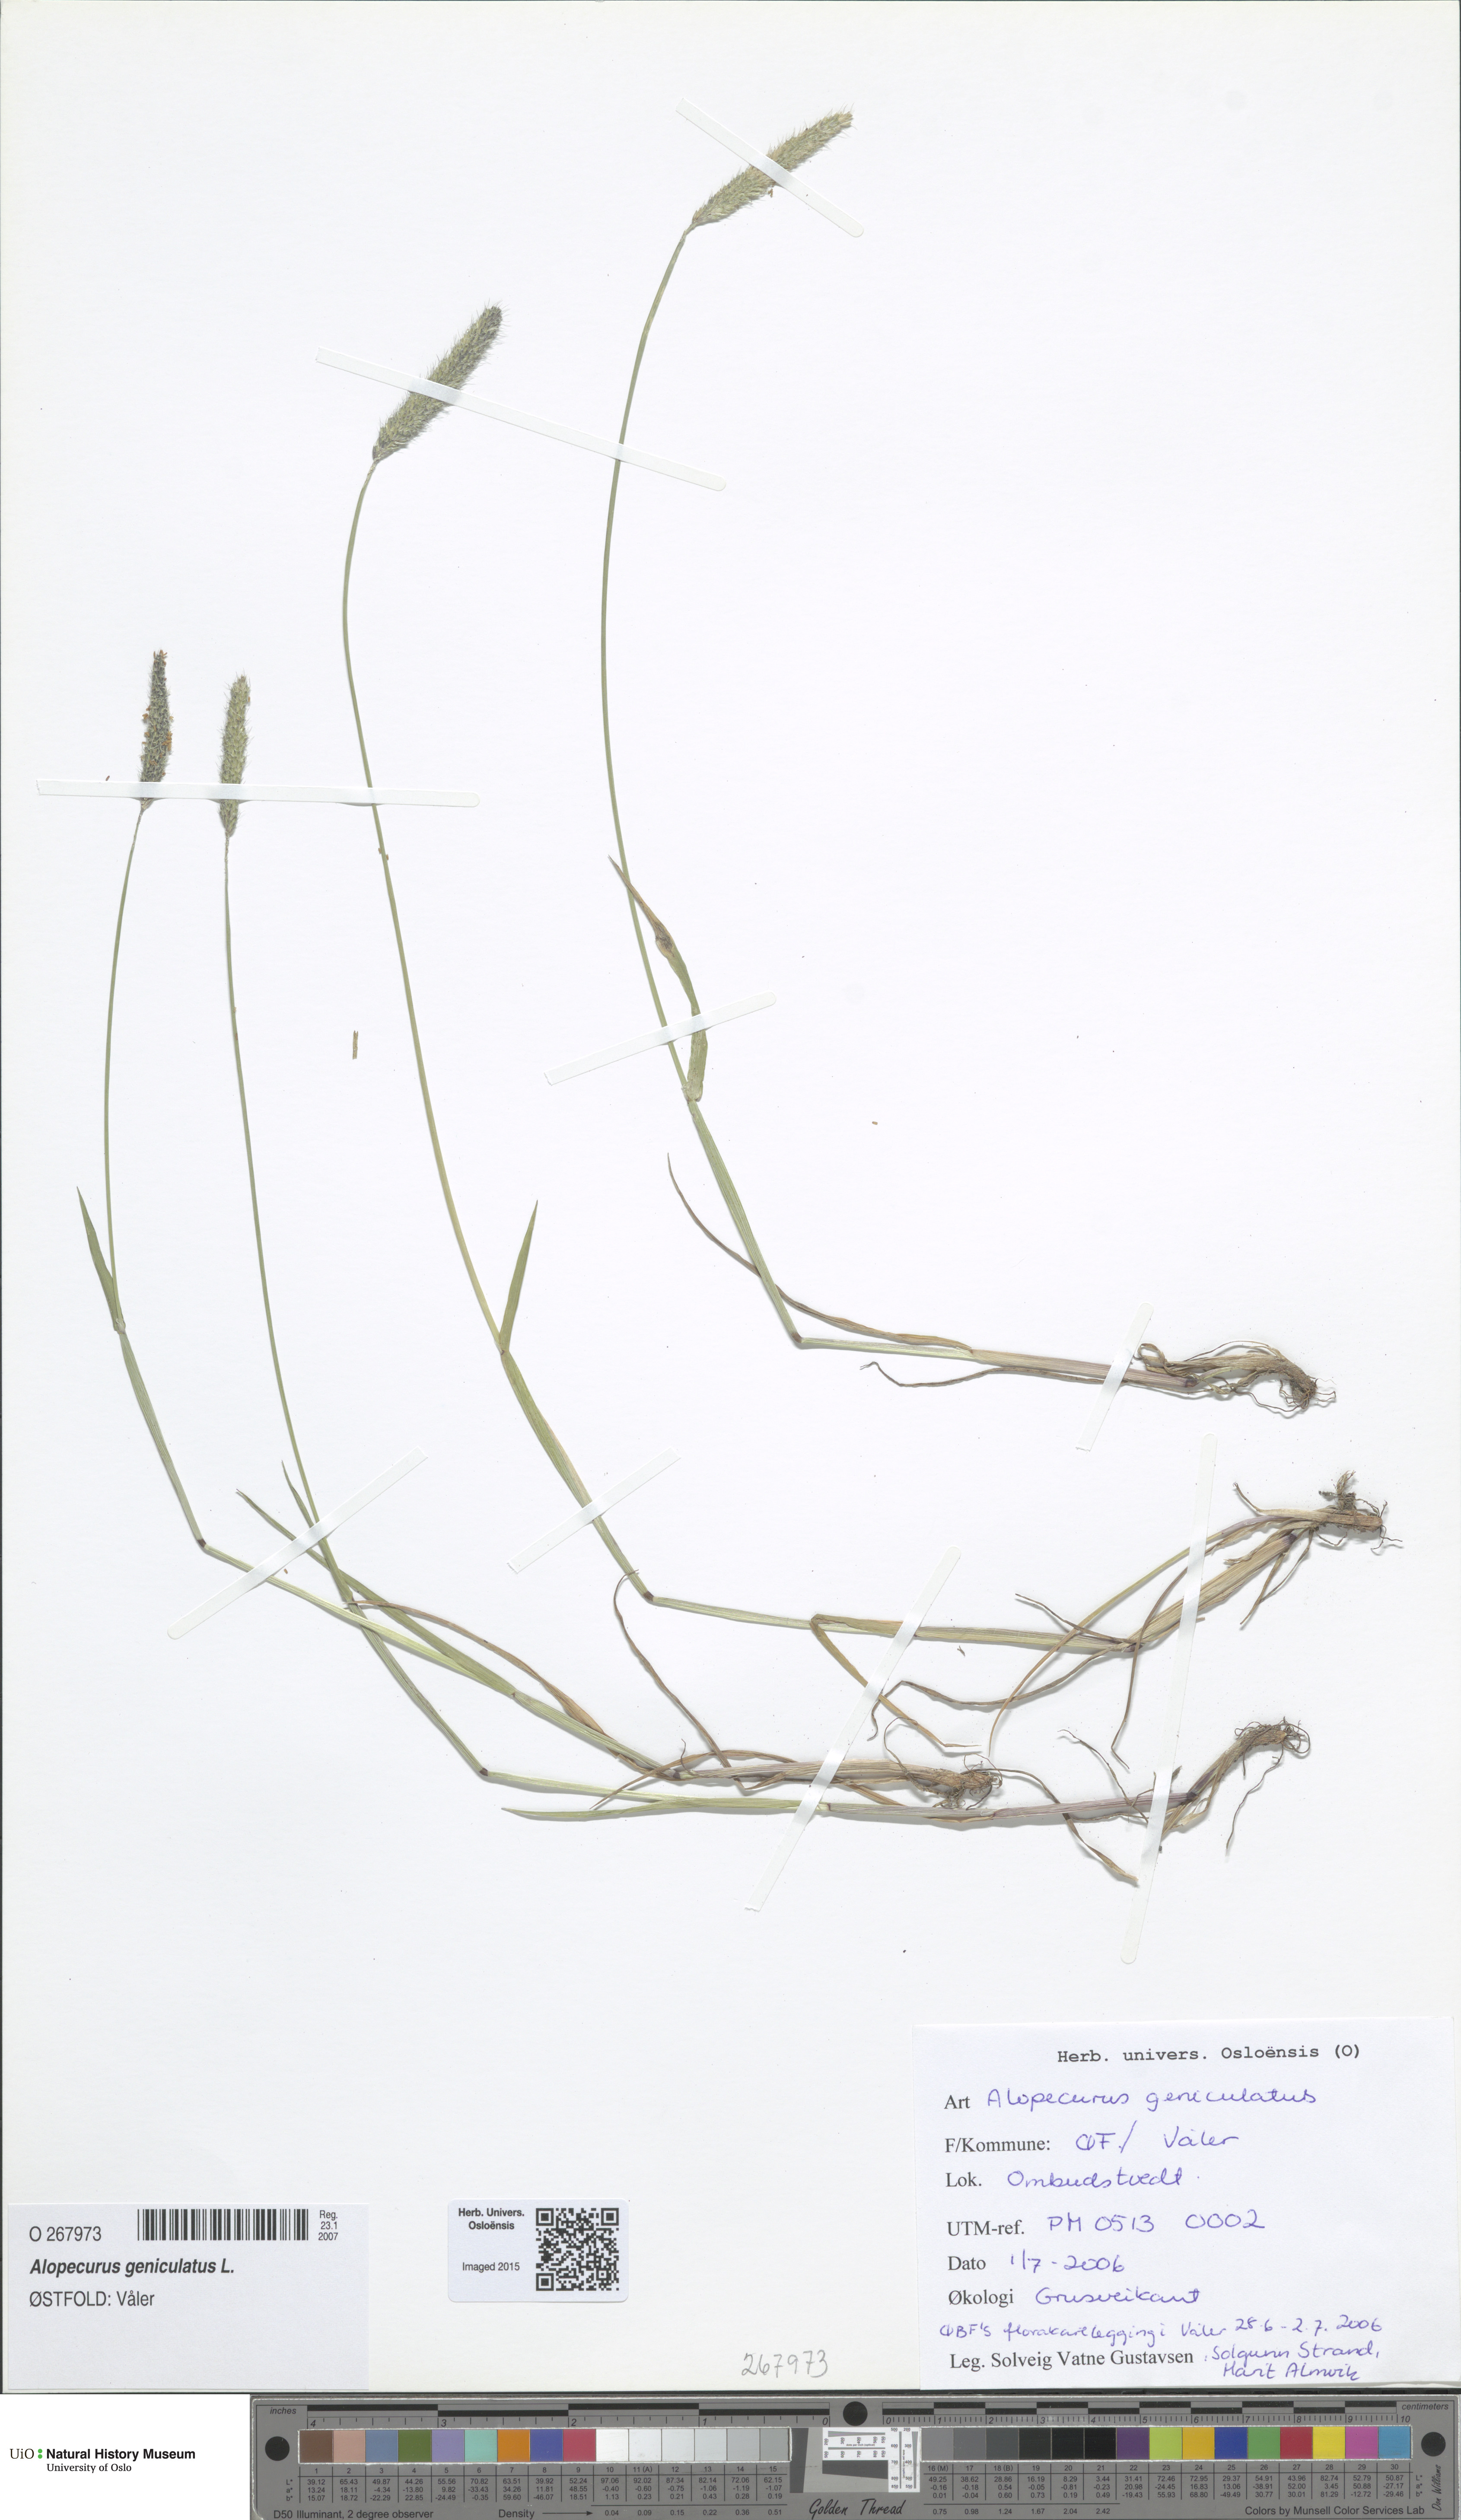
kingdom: Plantae
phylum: Tracheophyta
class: Liliopsida
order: Poales
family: Poaceae
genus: Alopecurus
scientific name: Alopecurus geniculatus
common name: Water foxtail
